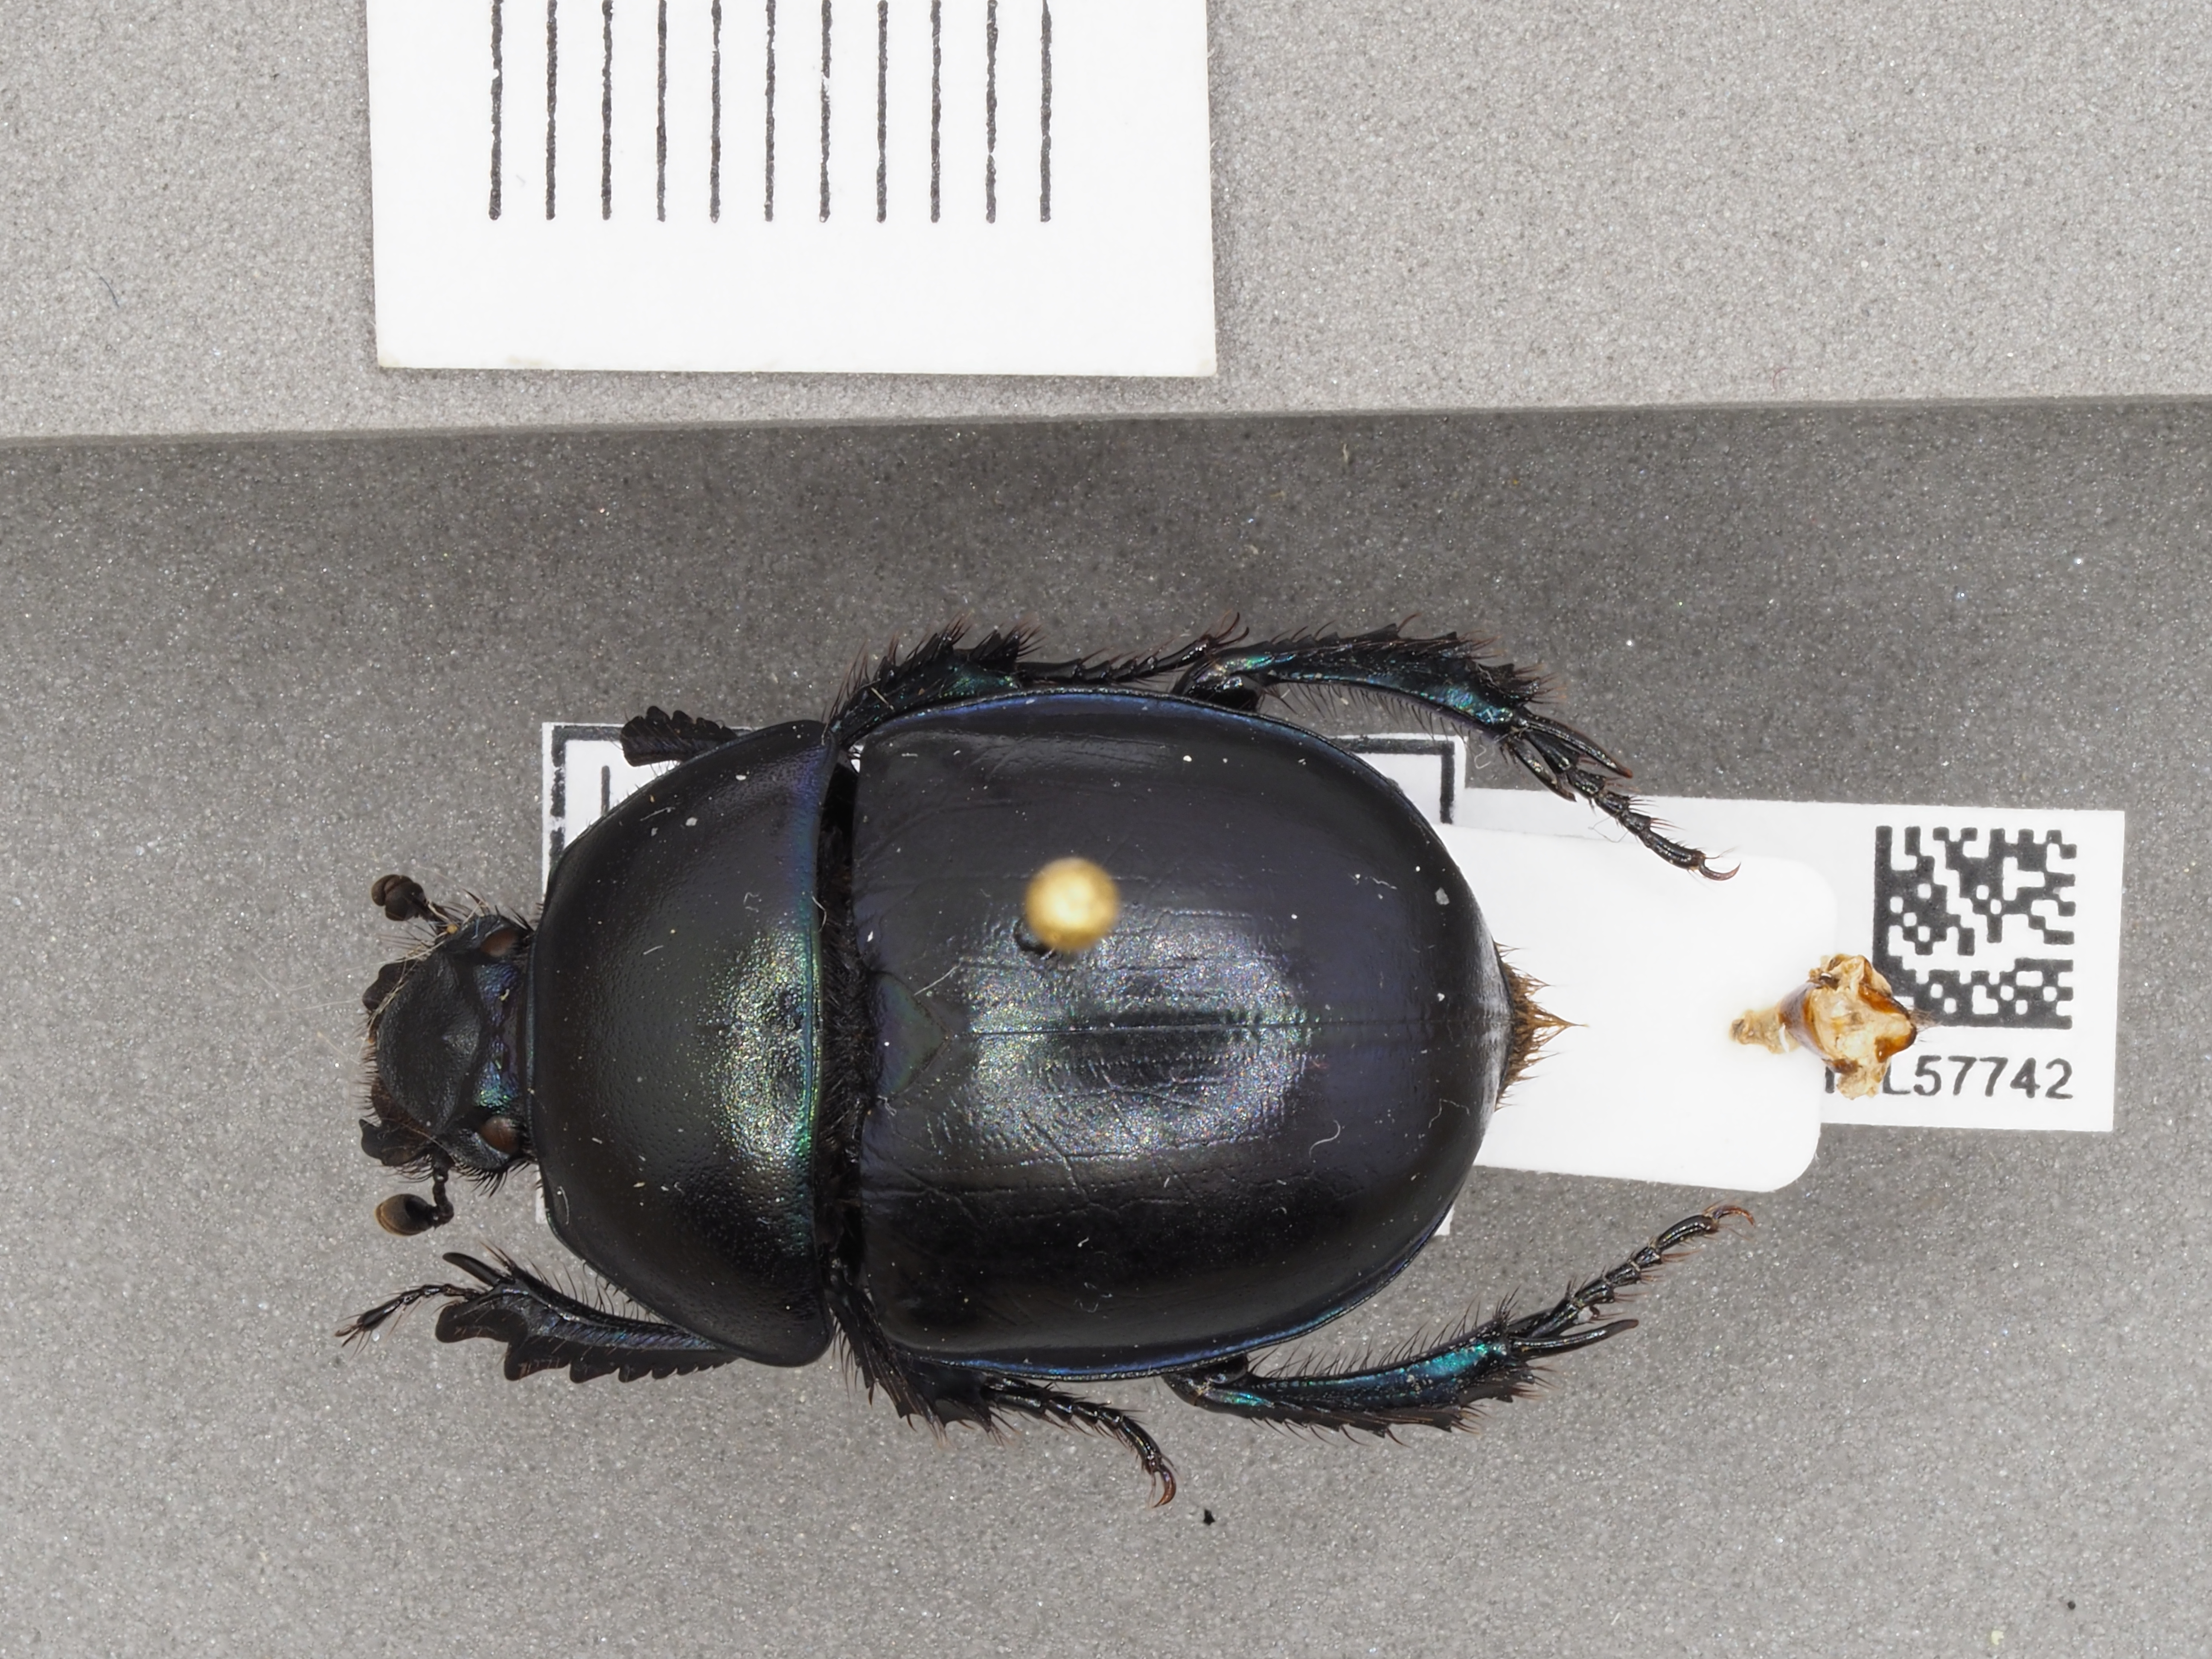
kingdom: Animalia
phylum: Arthropoda
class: Insecta
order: Coleoptera
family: Geotrupidae
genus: Trypocopris
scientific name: Trypocopris vernalis
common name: Spring dumbledor
